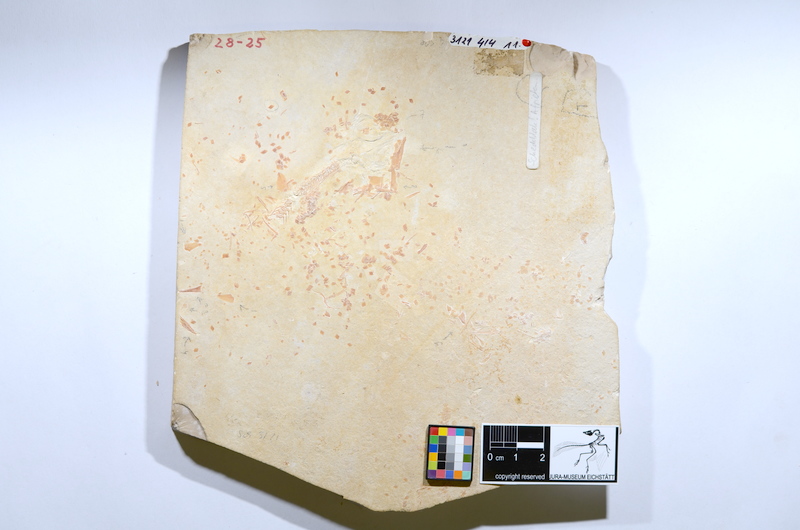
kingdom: Animalia
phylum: Chordata
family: Ophiopsiellidae
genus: Furo
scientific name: Furo
